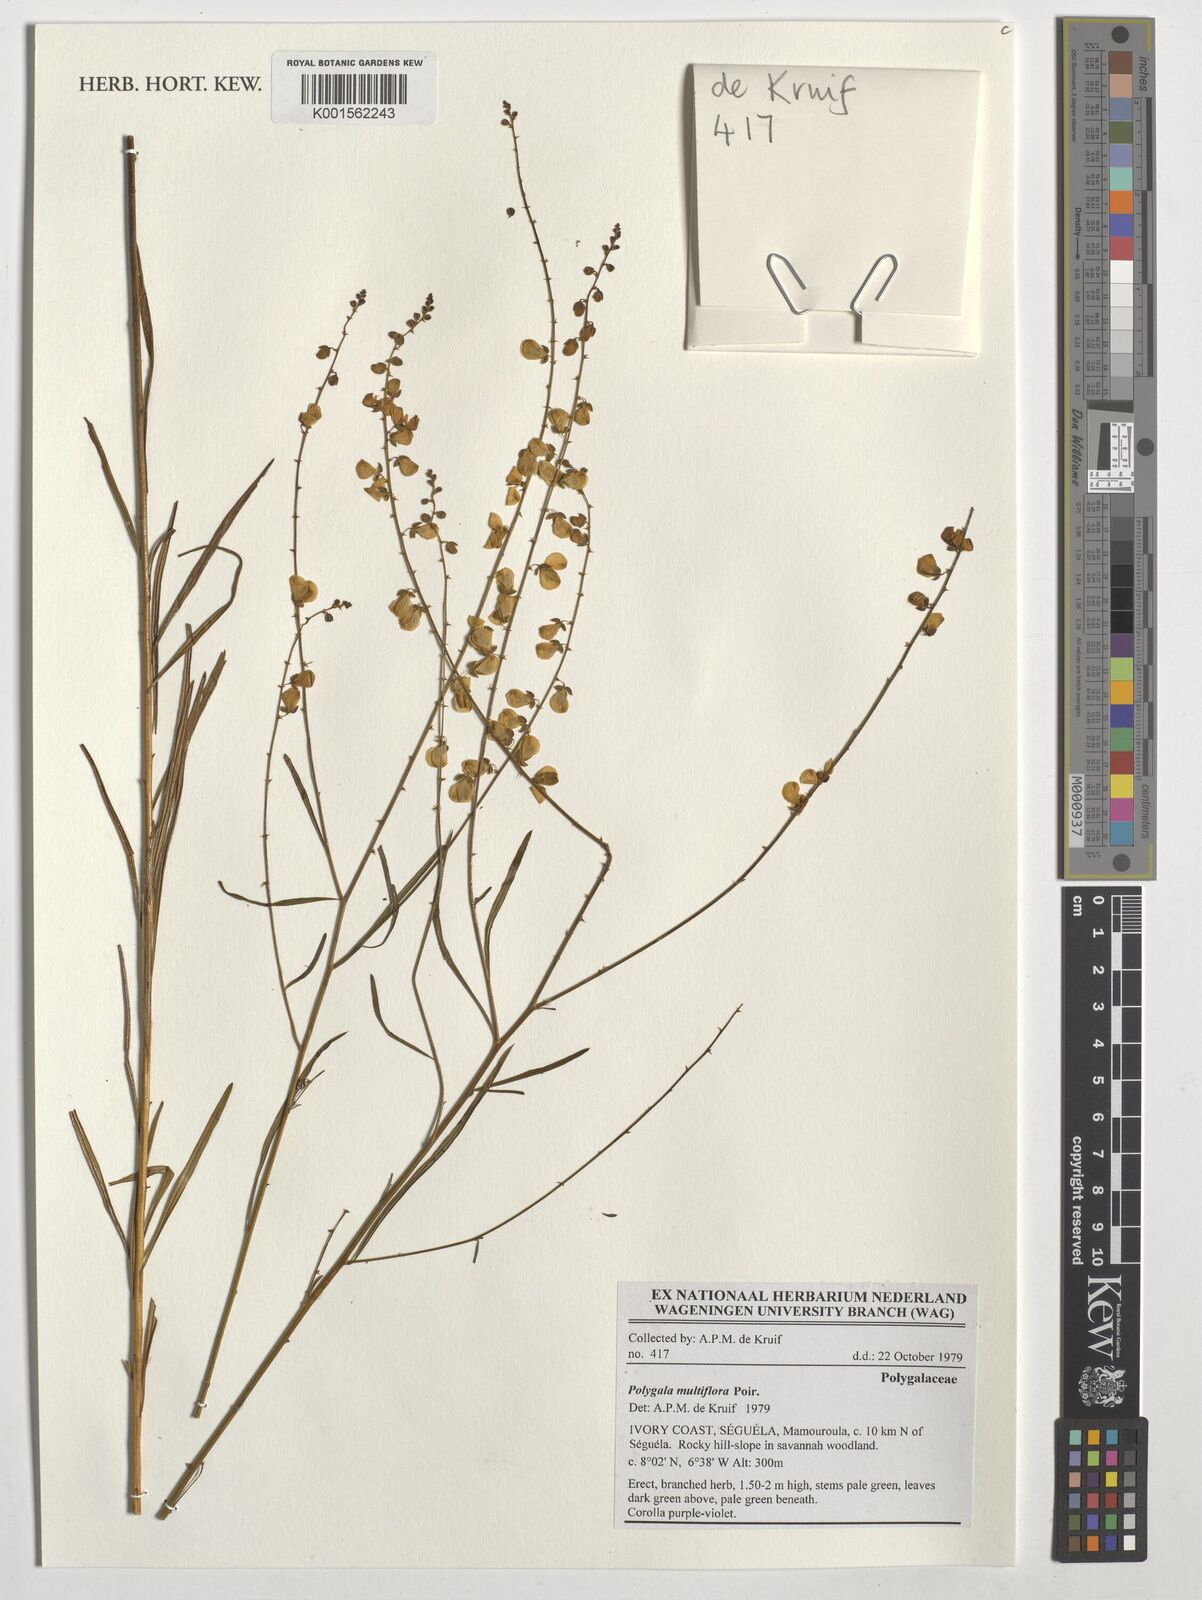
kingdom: Plantae
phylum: Tracheophyta
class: Magnoliopsida
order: Fabales
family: Polygalaceae
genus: Polygala
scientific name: Polygala multiflora
